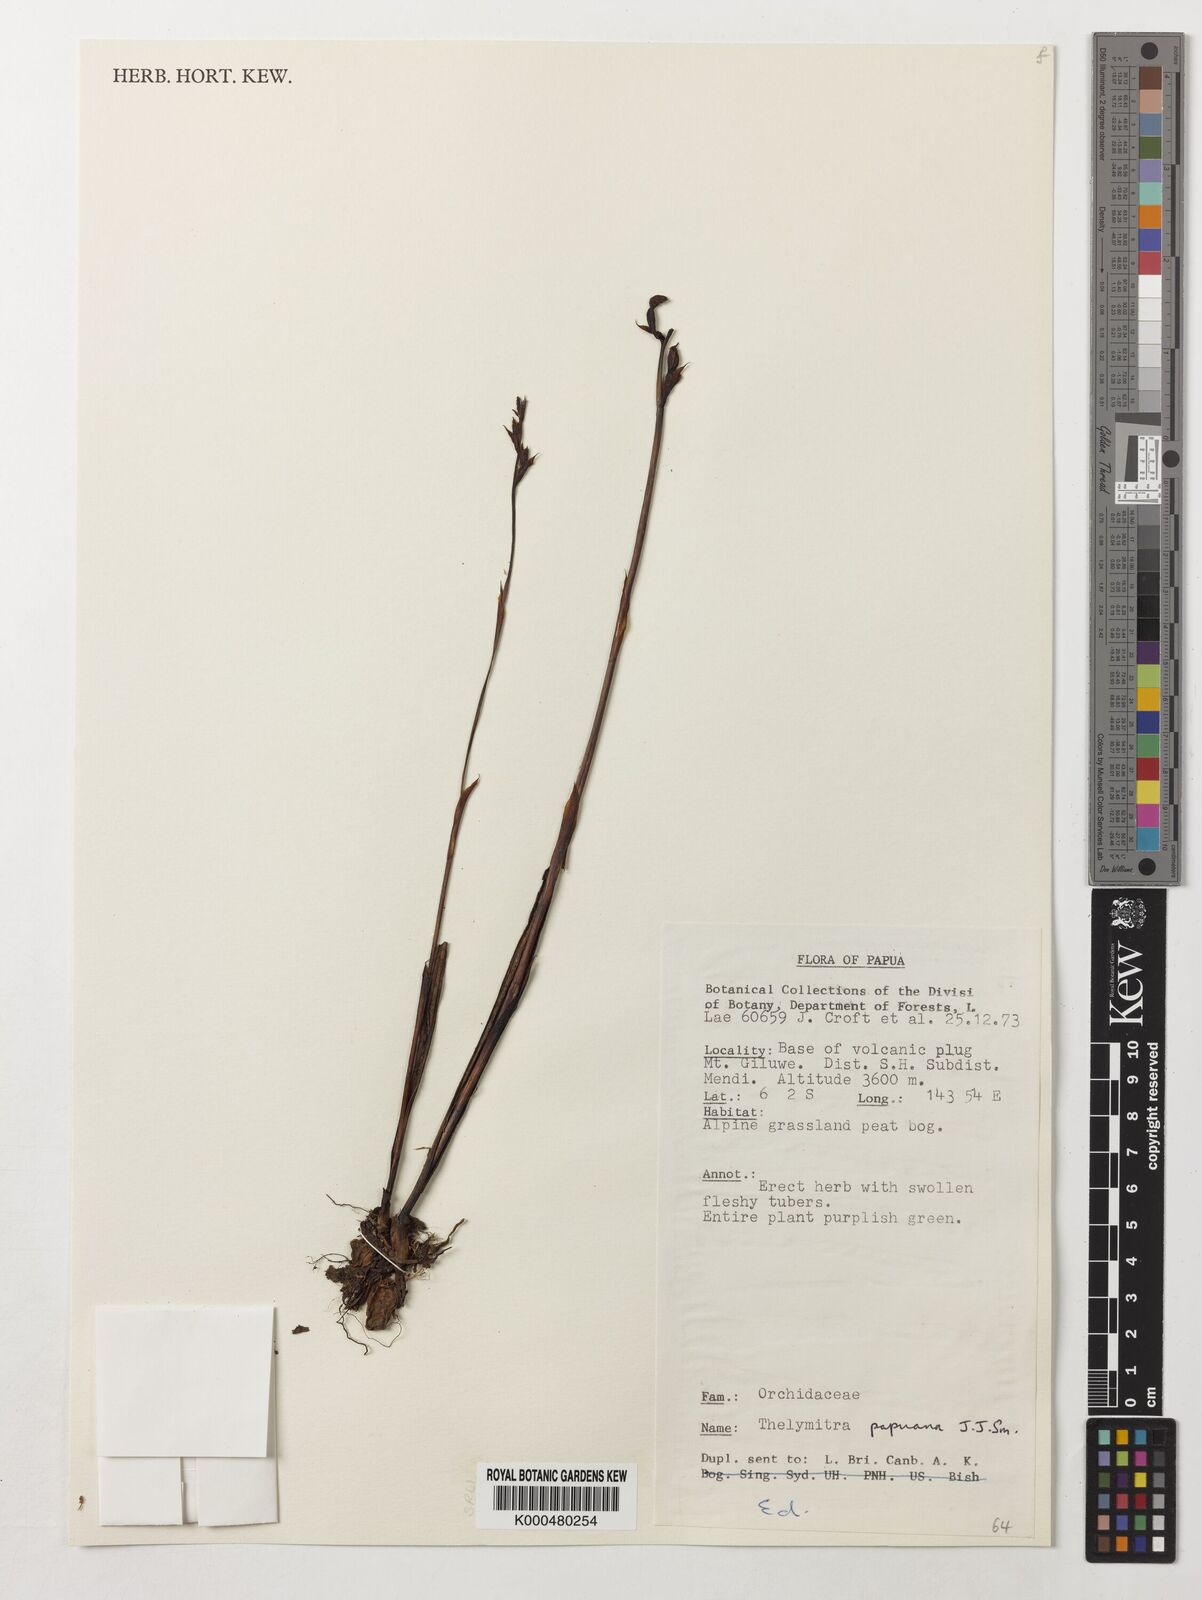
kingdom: Plantae
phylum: Tracheophyta
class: Liliopsida
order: Asparagales
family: Orchidaceae
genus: Thelymitra
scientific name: Thelymitra papuana
